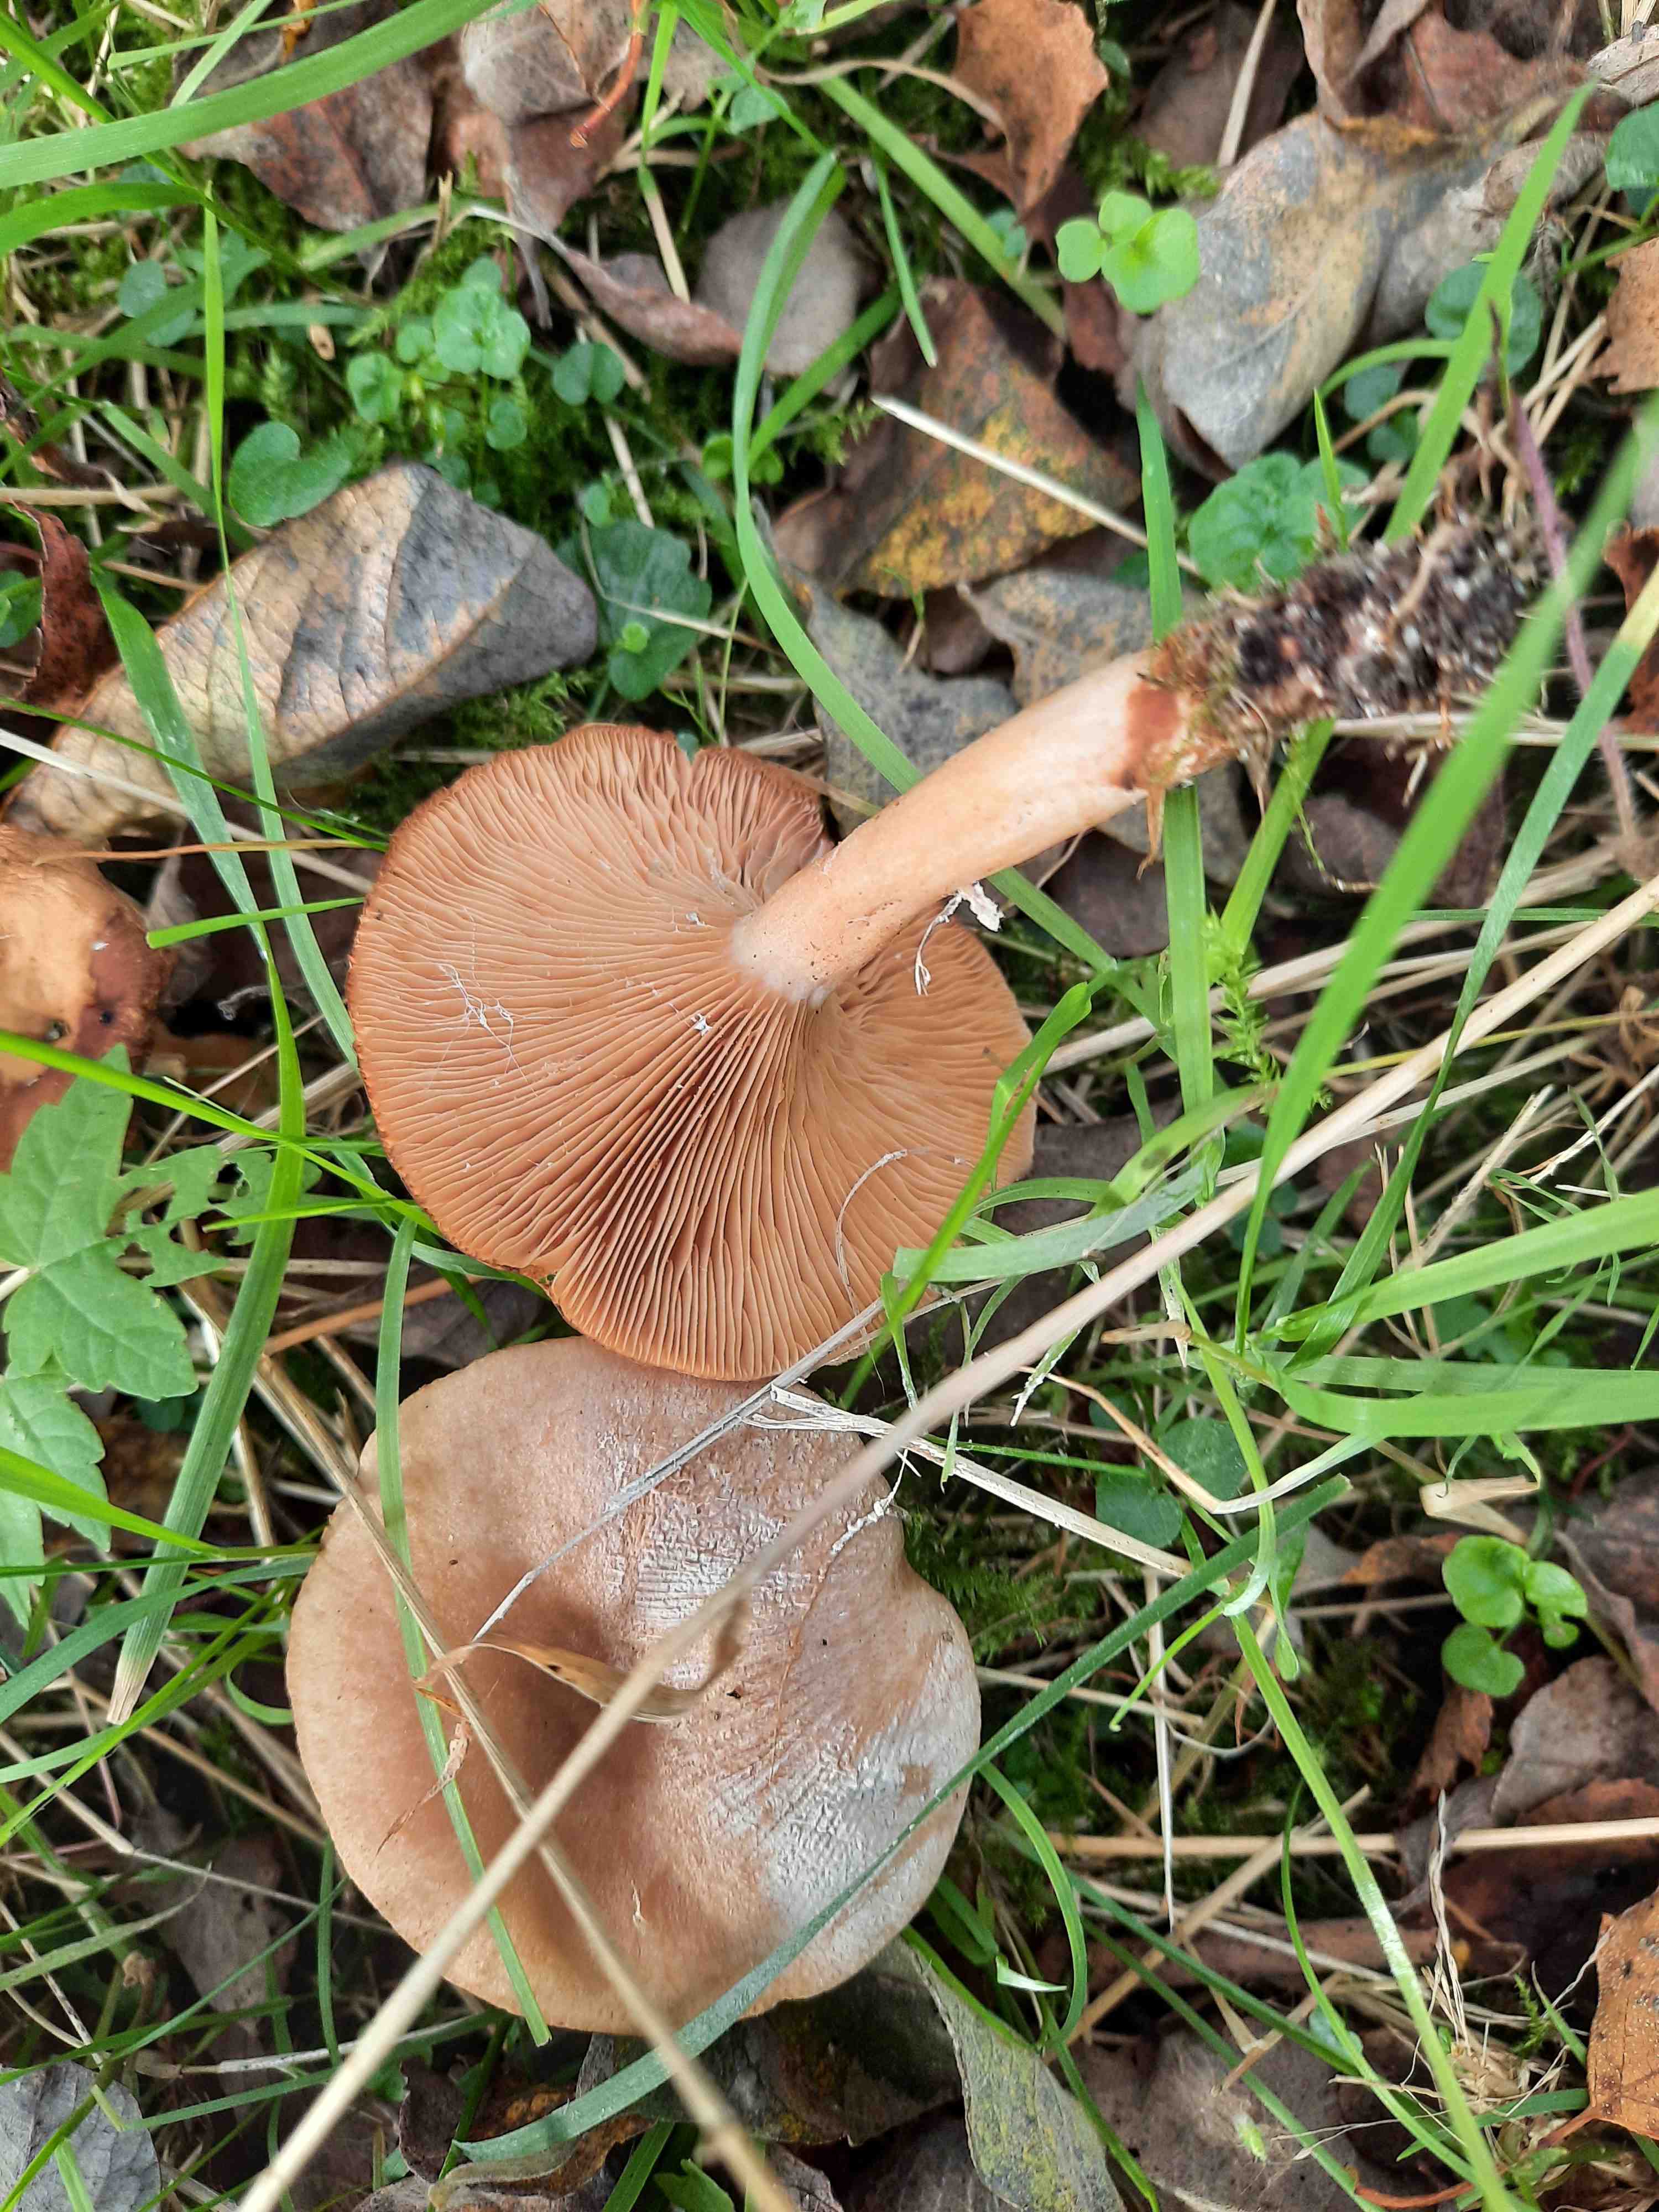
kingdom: Fungi
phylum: Basidiomycota
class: Agaricomycetes
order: Russulales
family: Russulaceae
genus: Lactarius
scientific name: Lactarius glyciosmus
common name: kokos-mælkehat
